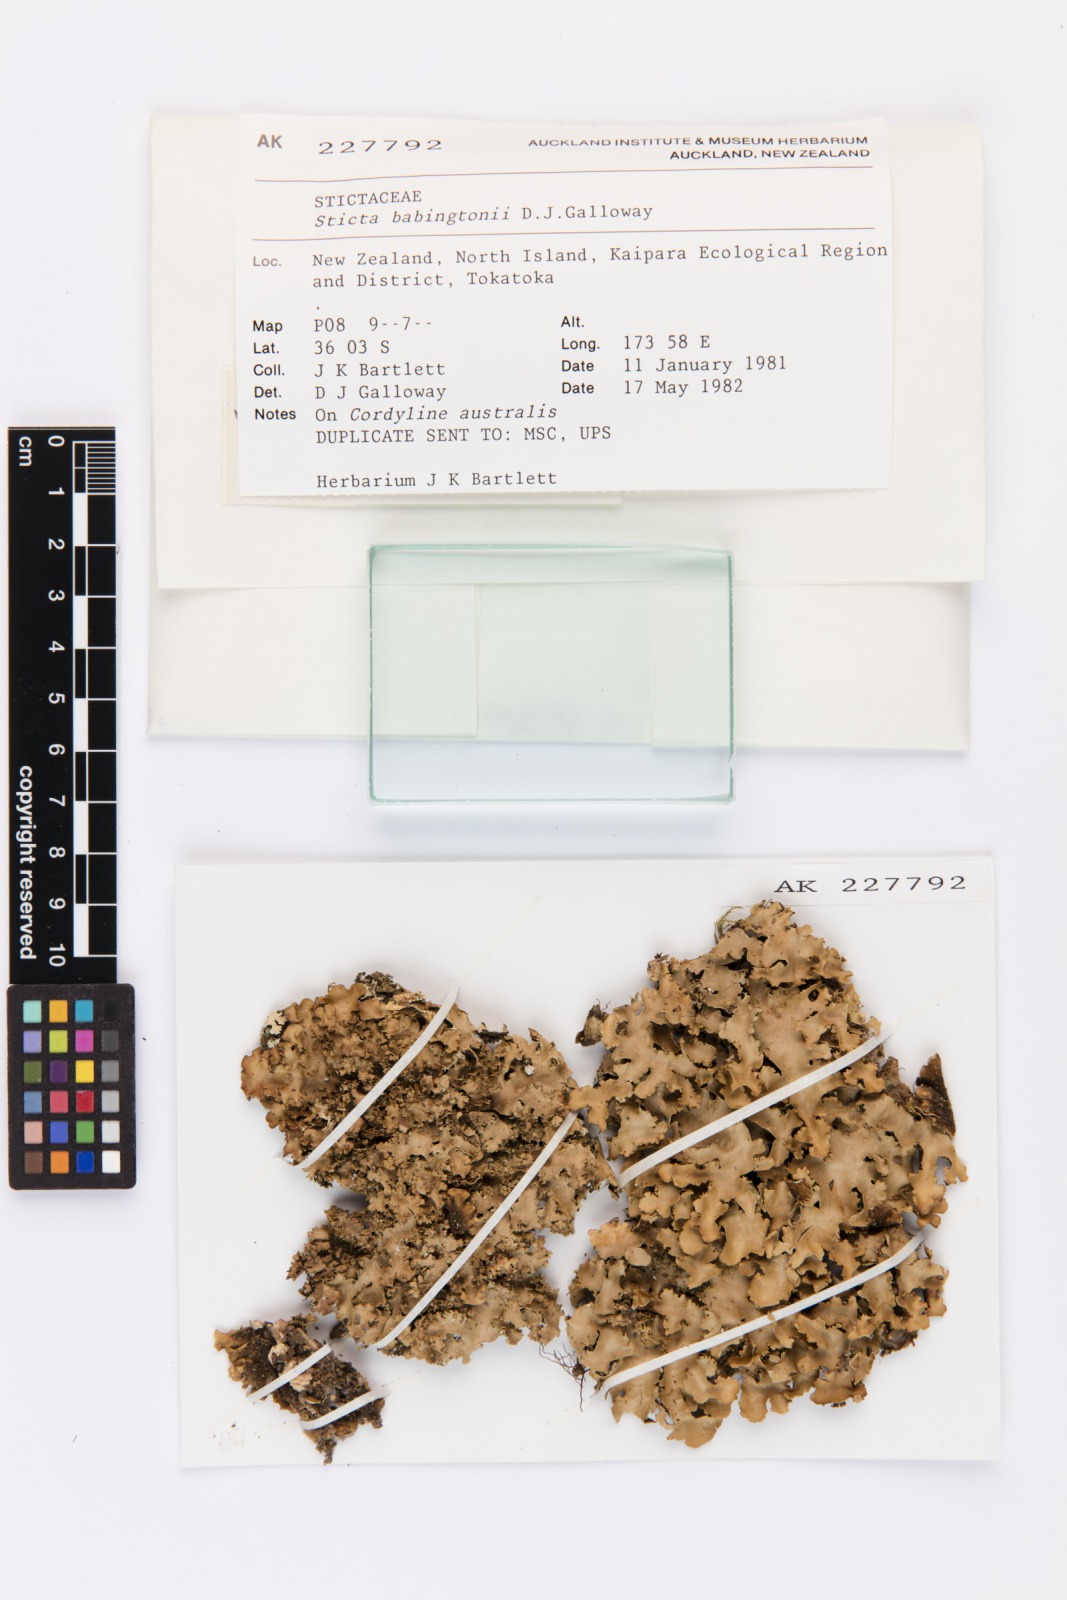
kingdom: Fungi
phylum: Ascomycota
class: Lecanoromycetes
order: Peltigerales
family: Lobariaceae
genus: Sticta
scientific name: Sticta babingtonii
